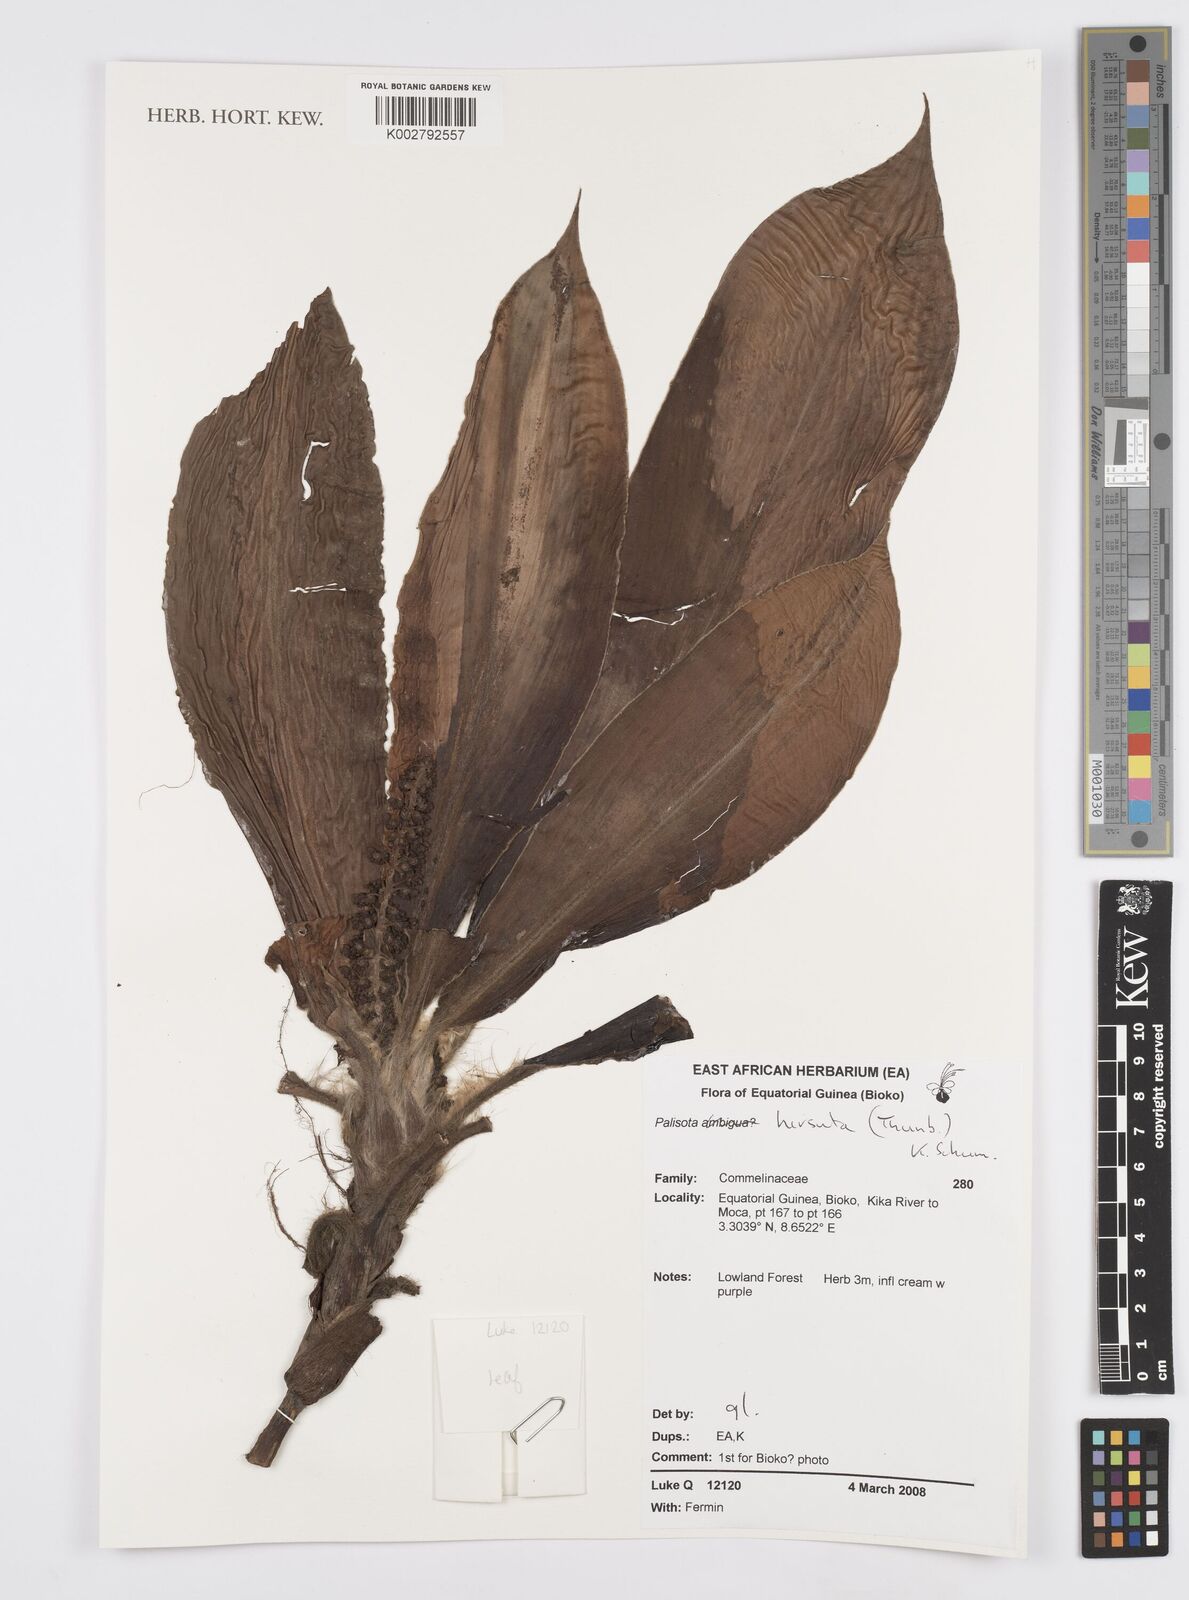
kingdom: Plantae
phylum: Tracheophyta
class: Liliopsida
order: Commelinales
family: Commelinaceae
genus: Palisota
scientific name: Palisota hirsuta
